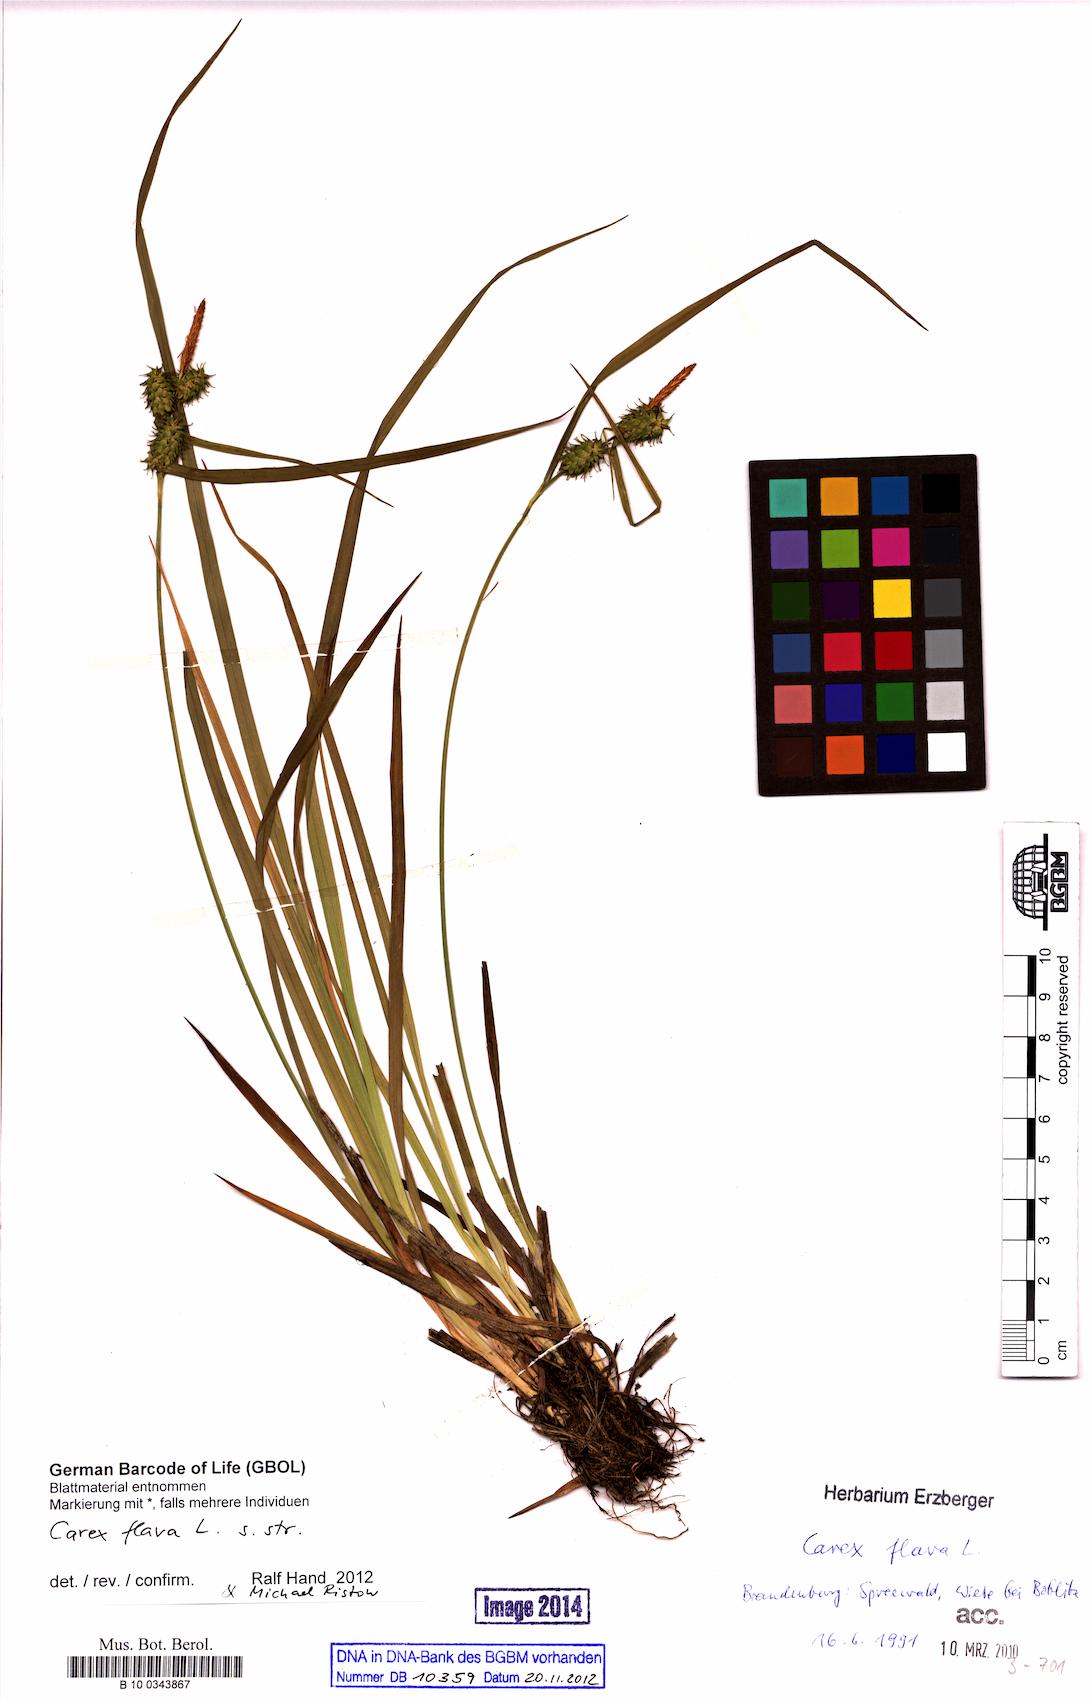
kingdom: Plantae
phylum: Tracheophyta
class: Liliopsida
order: Poales
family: Cyperaceae
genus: Carex
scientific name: Carex flava
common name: Large yellow-sedge
